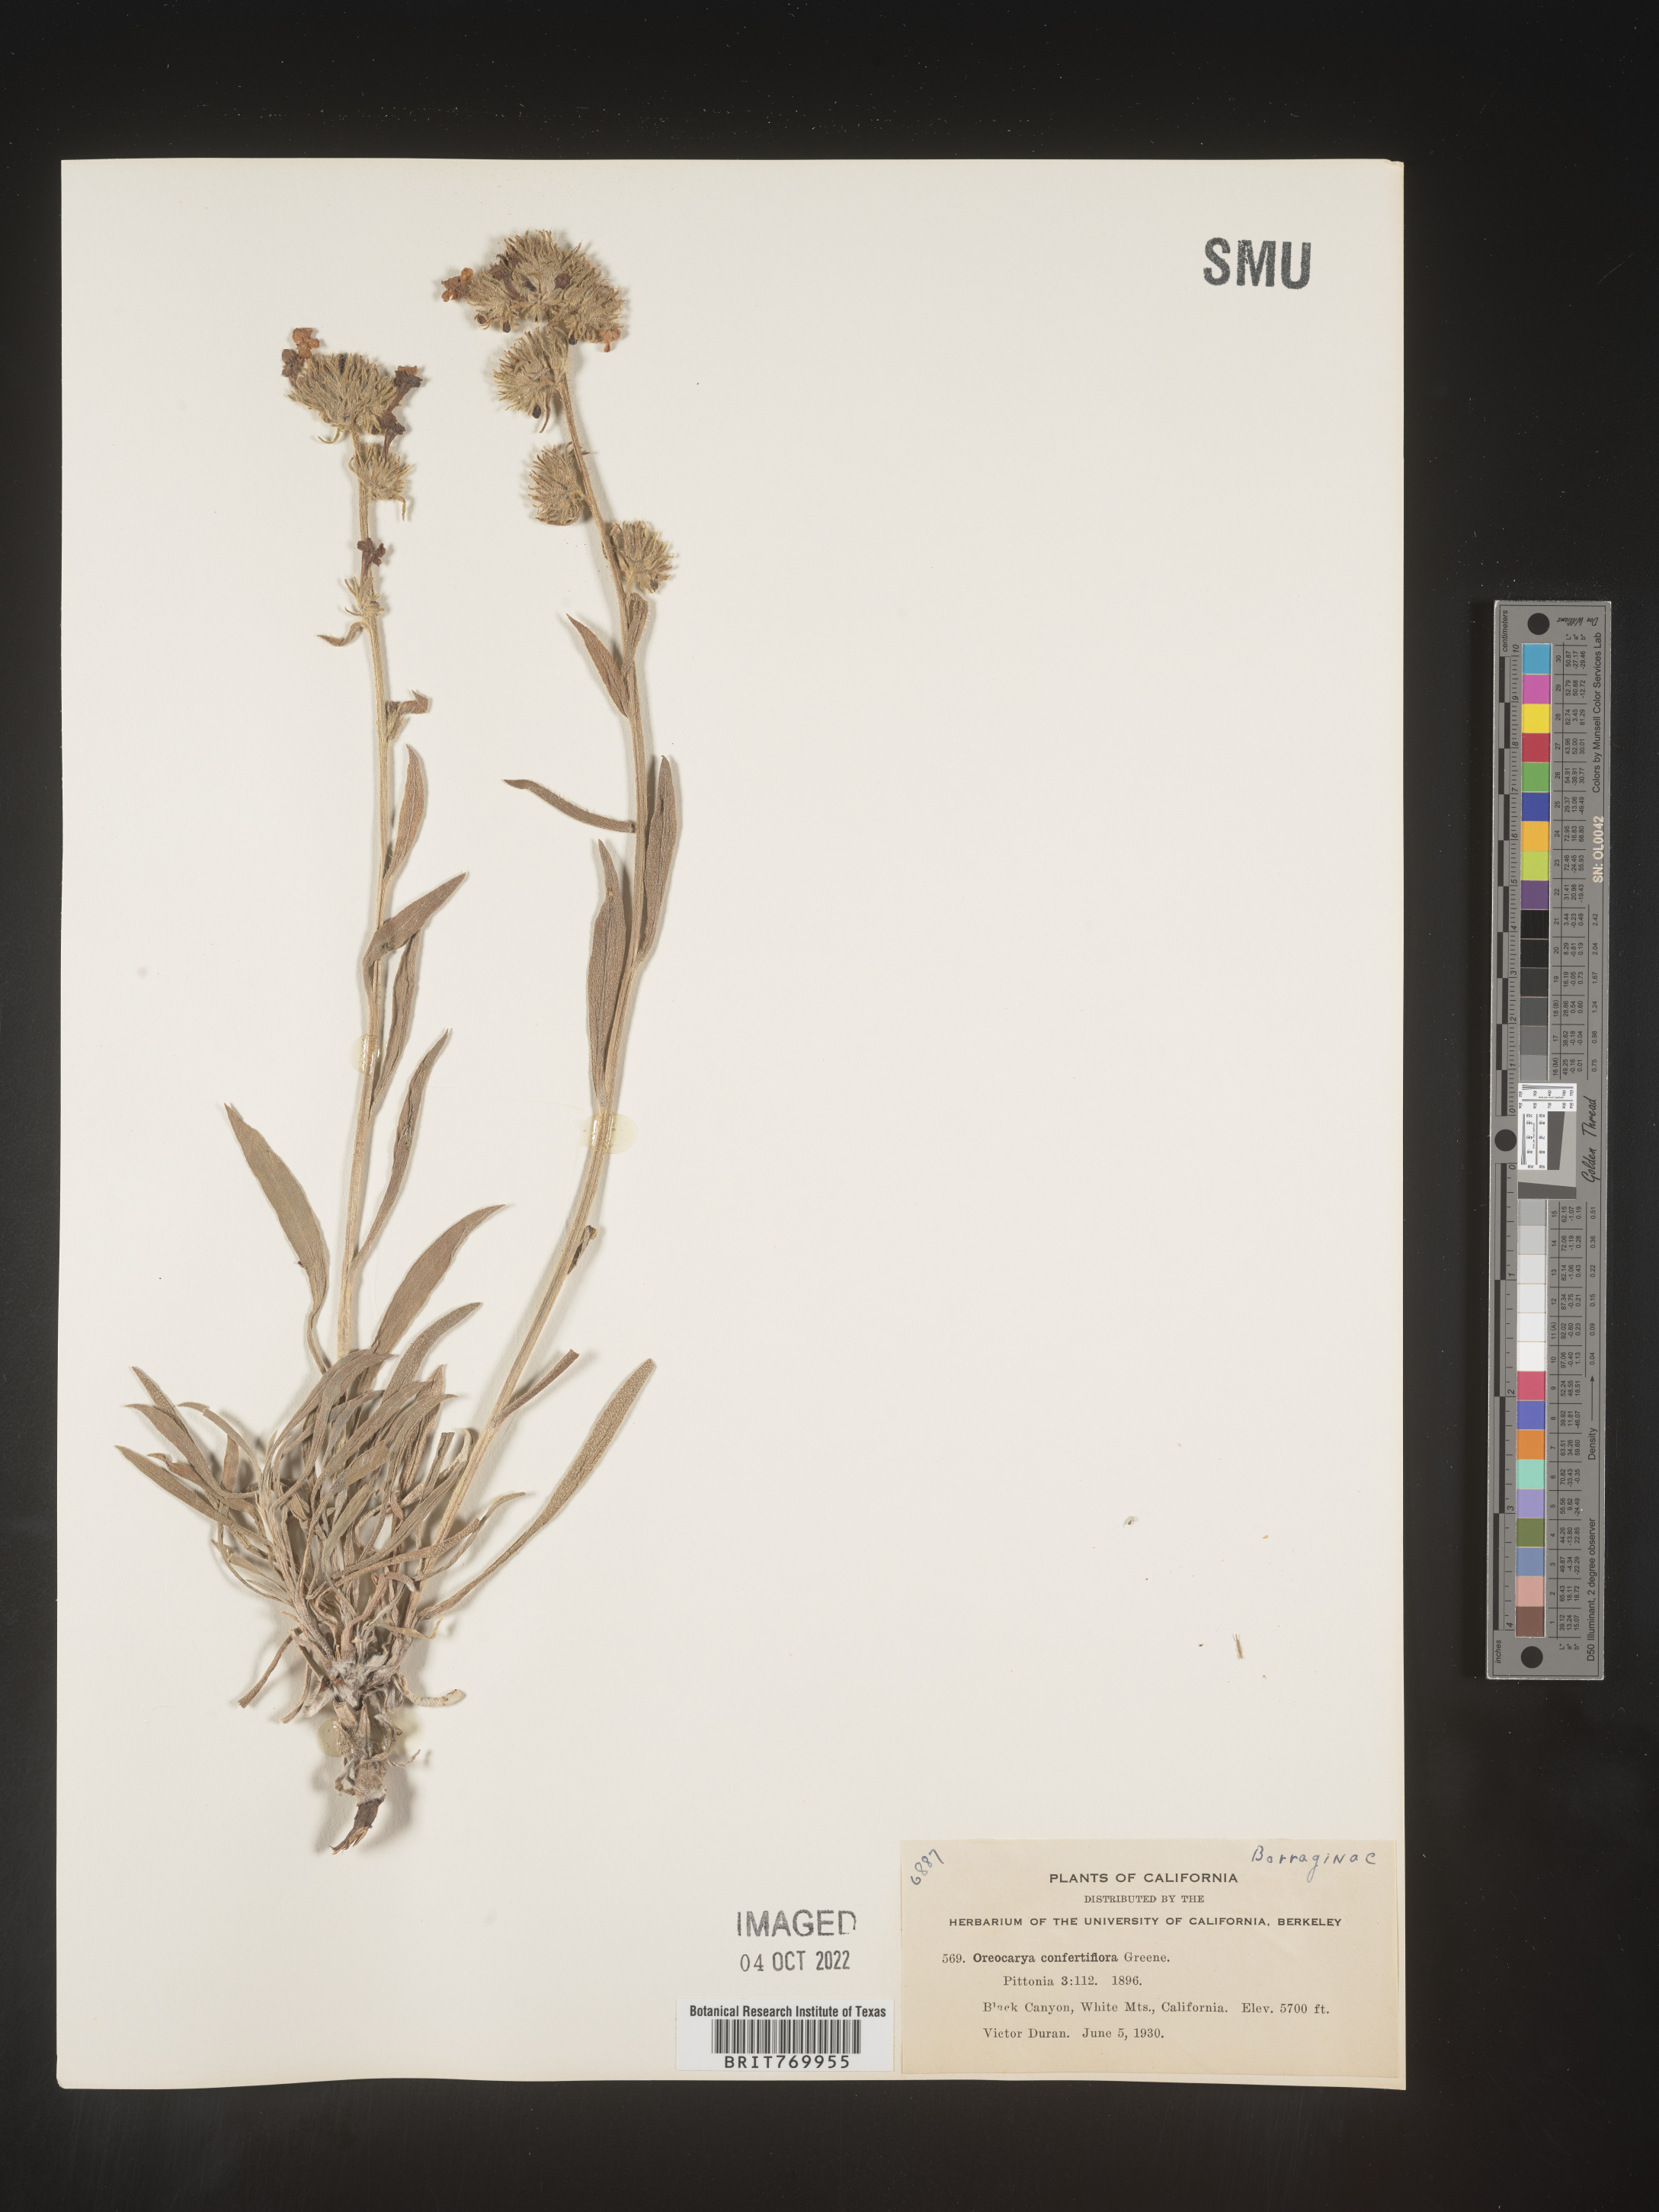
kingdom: Plantae
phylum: Tracheophyta
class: Magnoliopsida
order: Boraginales
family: Boraginaceae
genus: Oreocarya
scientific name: Oreocarya
